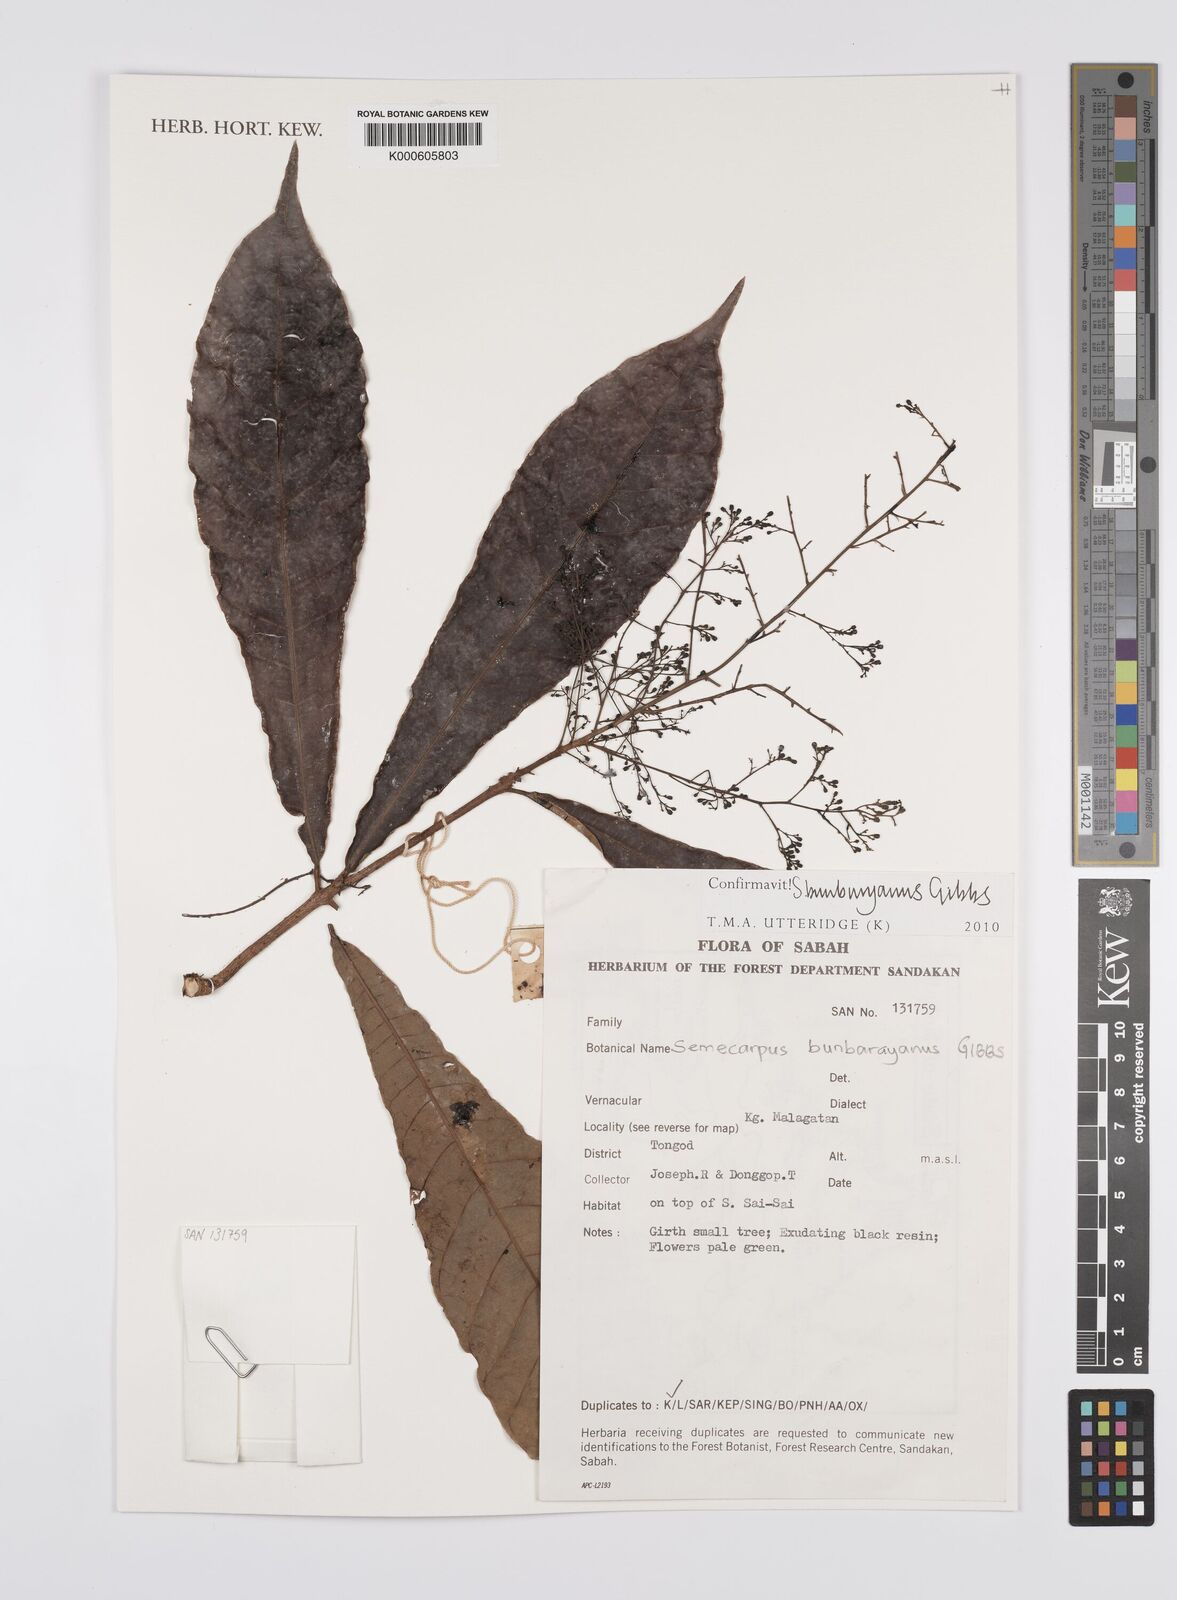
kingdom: Plantae
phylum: Tracheophyta
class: Magnoliopsida
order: Sapindales
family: Anacardiaceae
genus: Semecarpus
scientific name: Semecarpus bunburyanus
